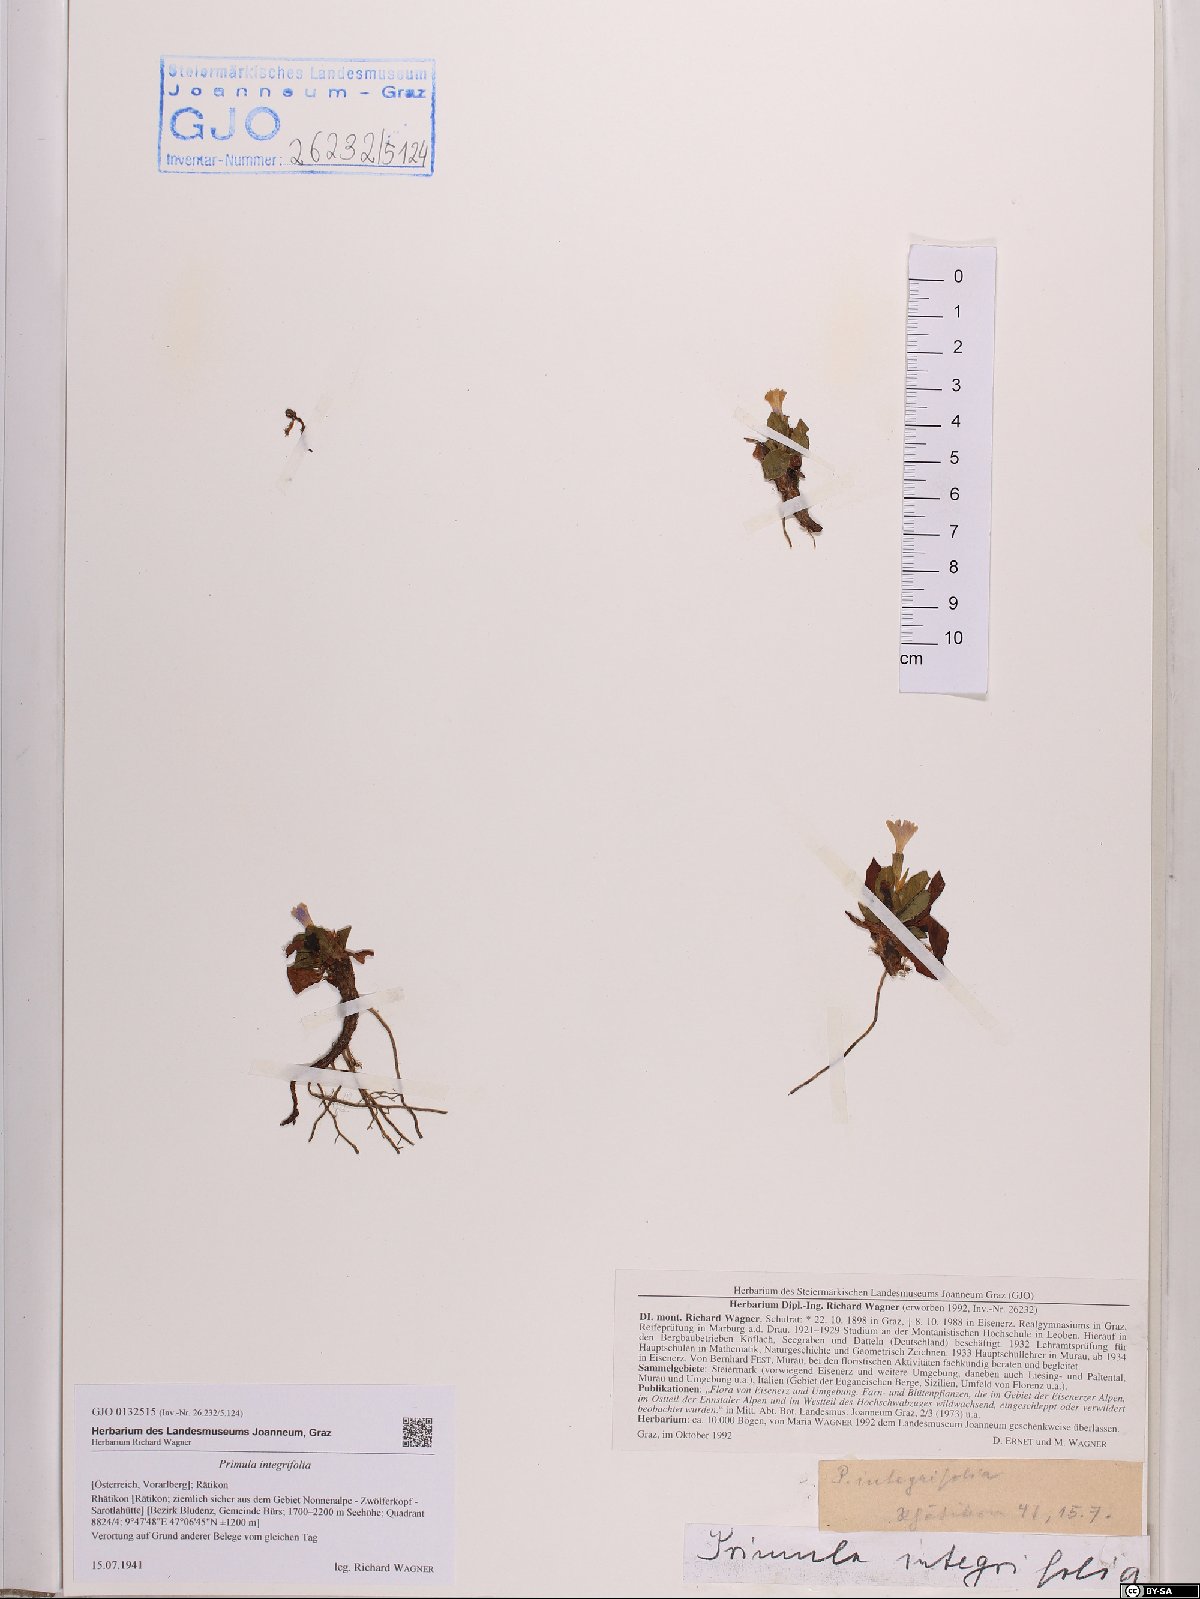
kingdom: Plantae
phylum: Tracheophyta
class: Magnoliopsida
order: Ericales
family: Primulaceae
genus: Primula
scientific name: Primula integrifolia
